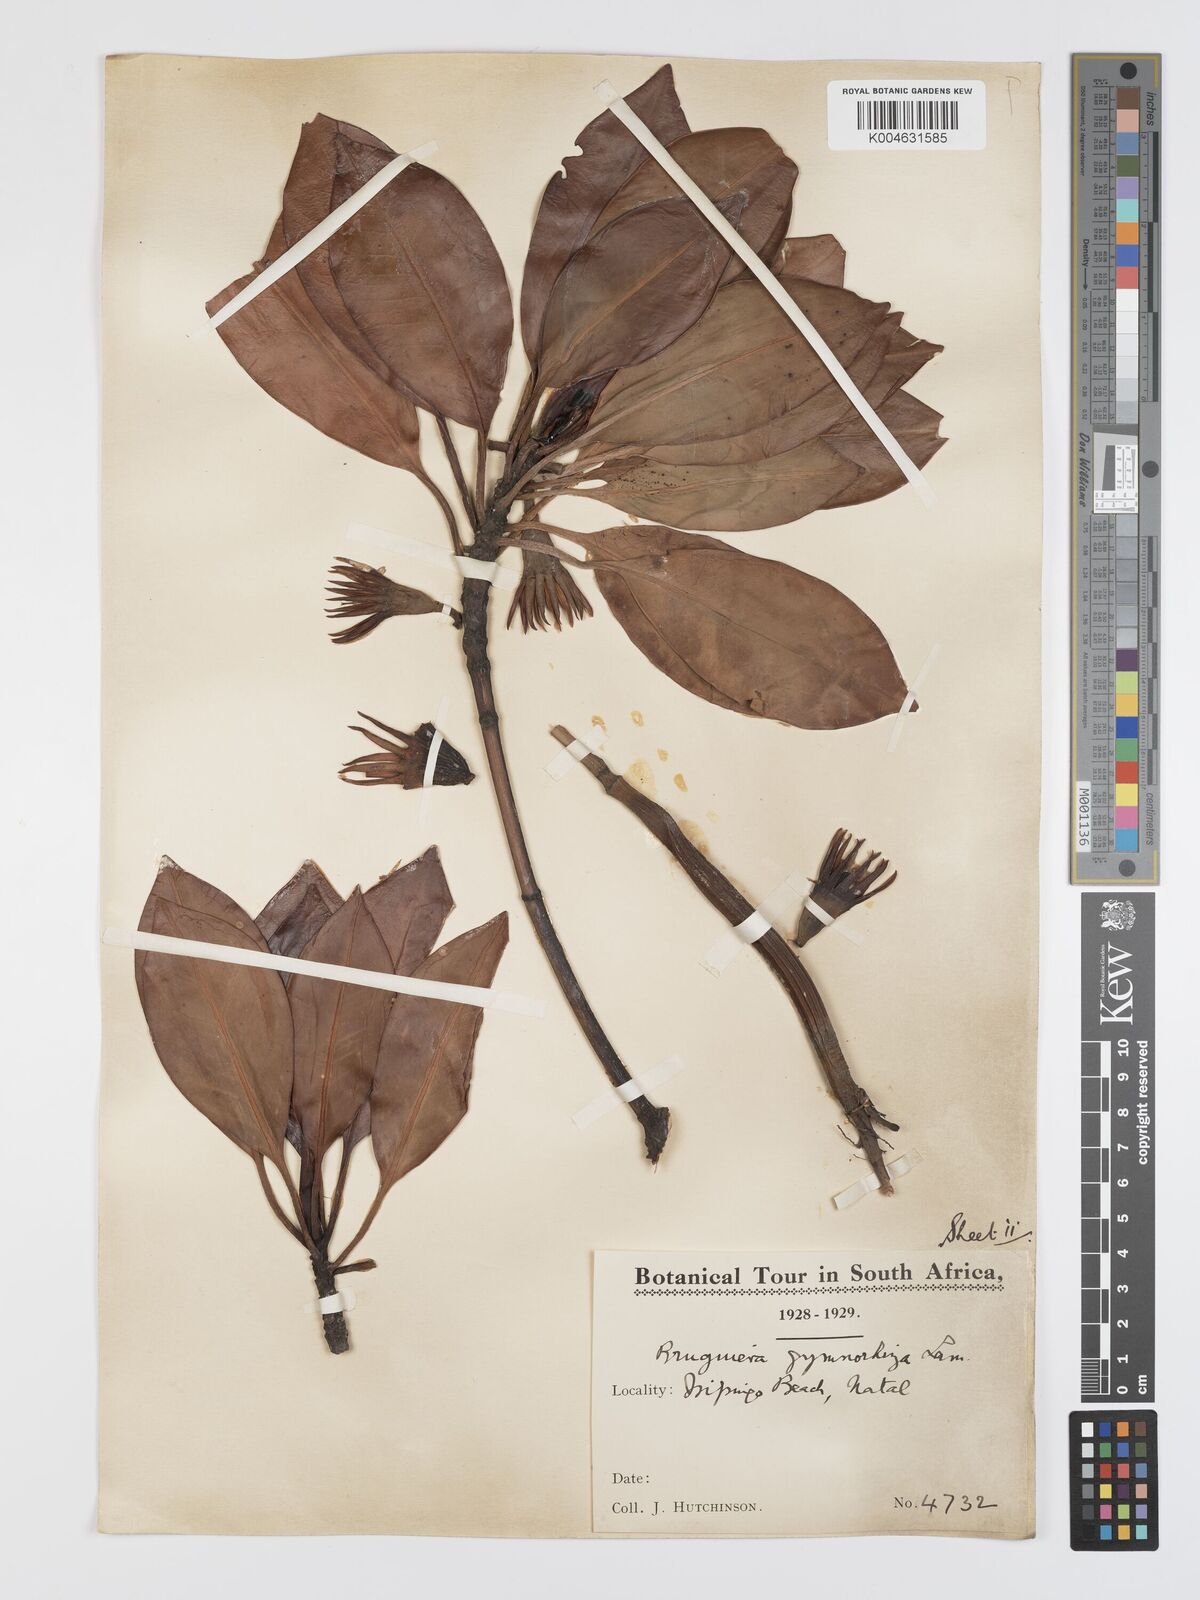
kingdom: Plantae
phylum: Tracheophyta
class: Magnoliopsida
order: Malpighiales
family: Rhizophoraceae
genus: Bruguiera
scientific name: Bruguiera
